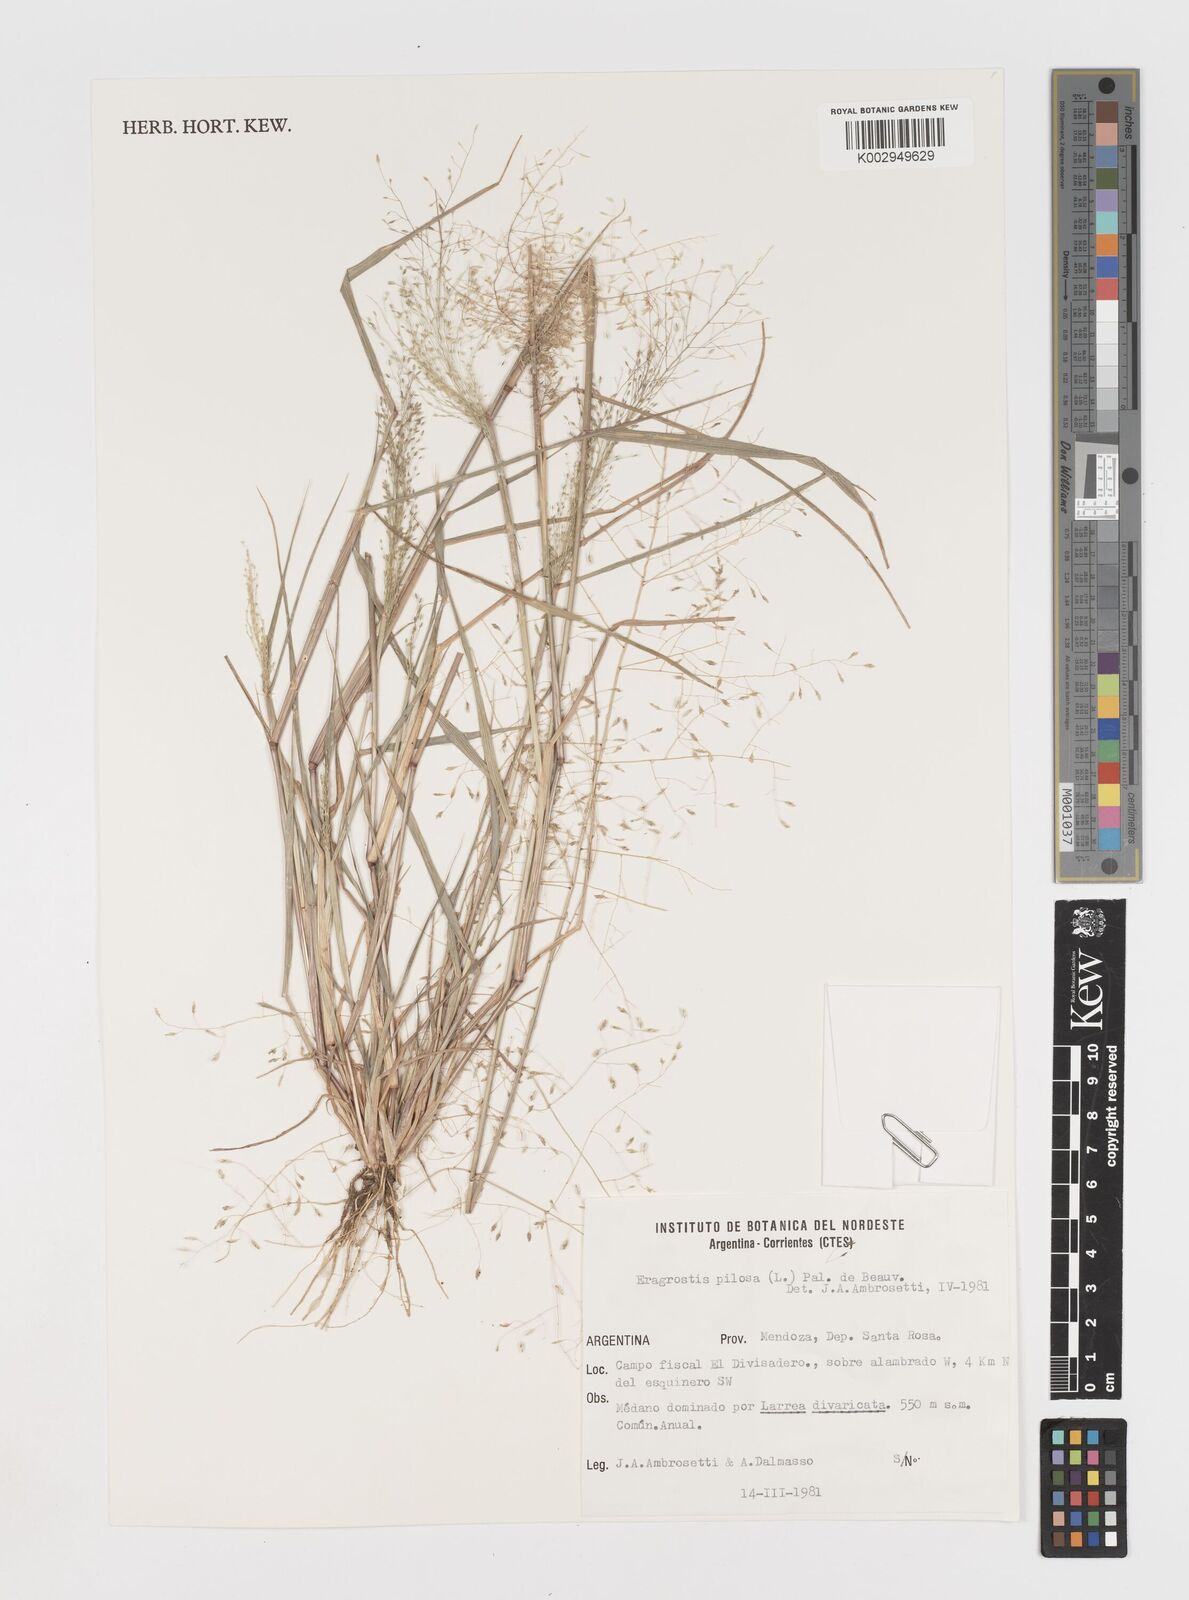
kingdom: Plantae
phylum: Tracheophyta
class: Liliopsida
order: Poales
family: Poaceae
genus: Eragrostis
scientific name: Eragrostis pilosa
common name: Indian lovegrass
